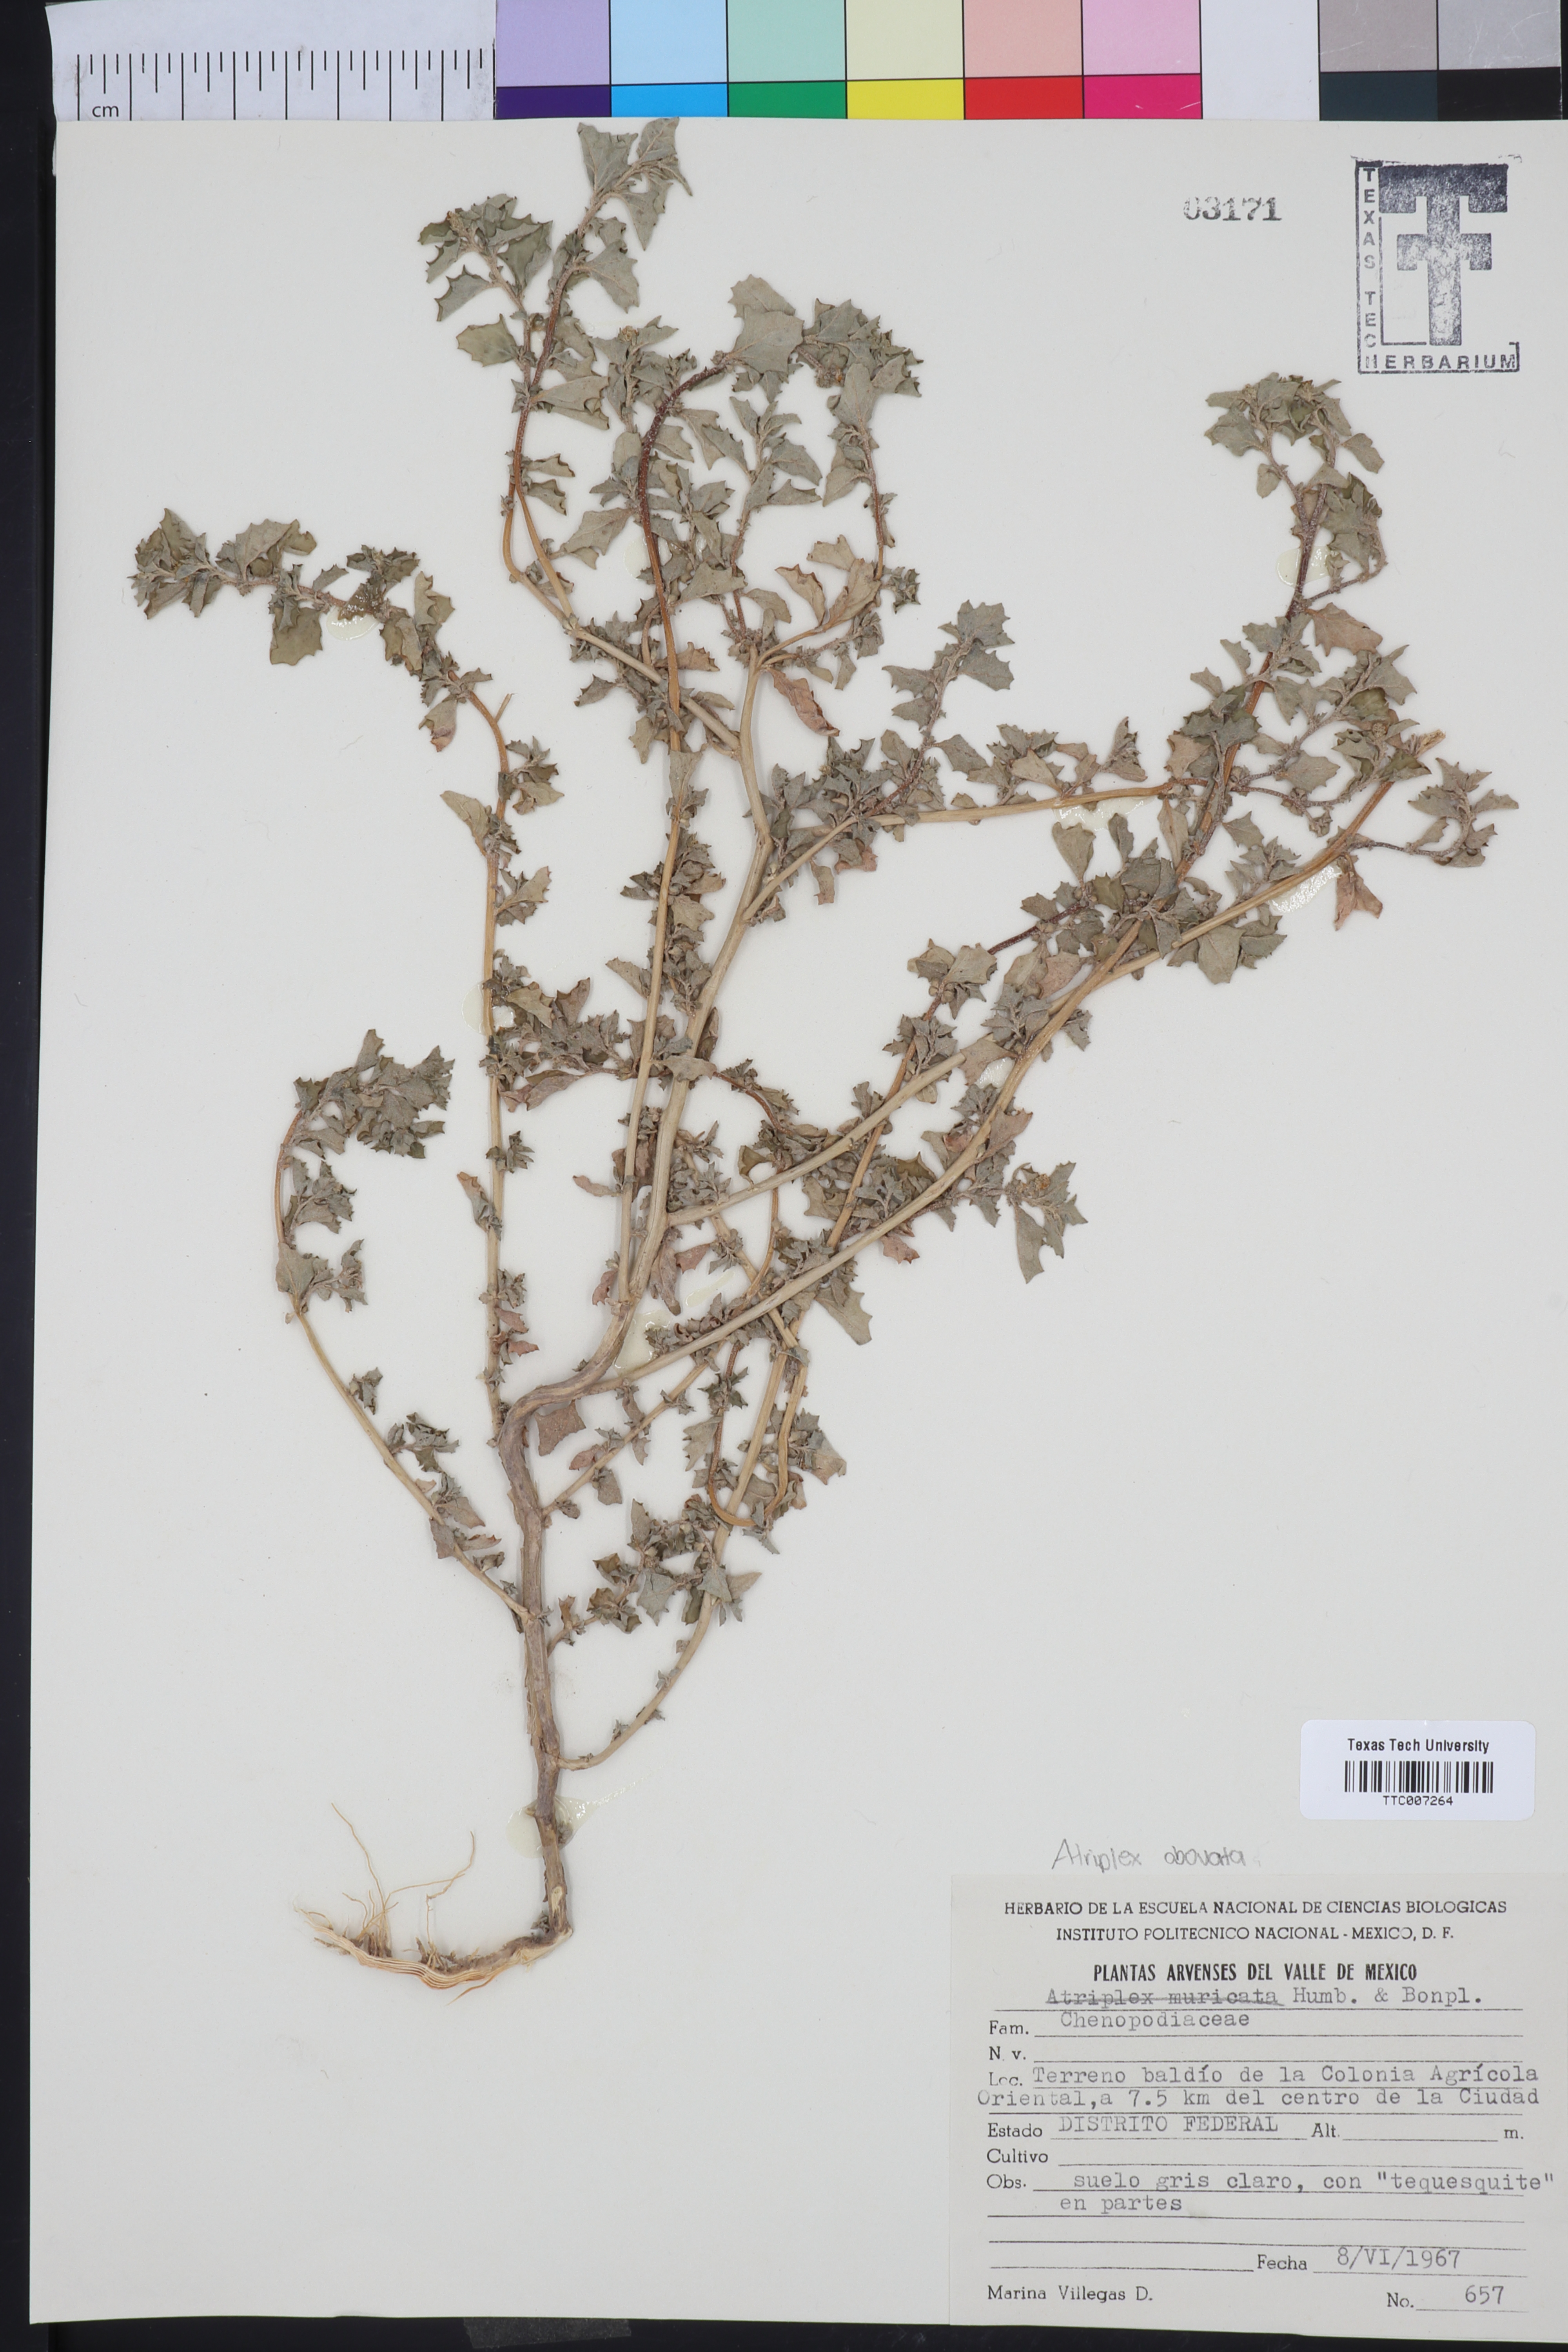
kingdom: Plantae
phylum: Tracheophyta
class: Magnoliopsida
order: Caryophyllales
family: Amaranthaceae
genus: Atriplex
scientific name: Atriplex muricata
